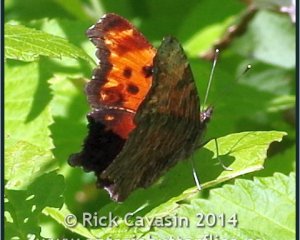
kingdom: Animalia
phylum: Arthropoda
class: Insecta
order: Lepidoptera
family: Nymphalidae
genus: Polygonia
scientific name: Polygonia progne
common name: Gray Comma
